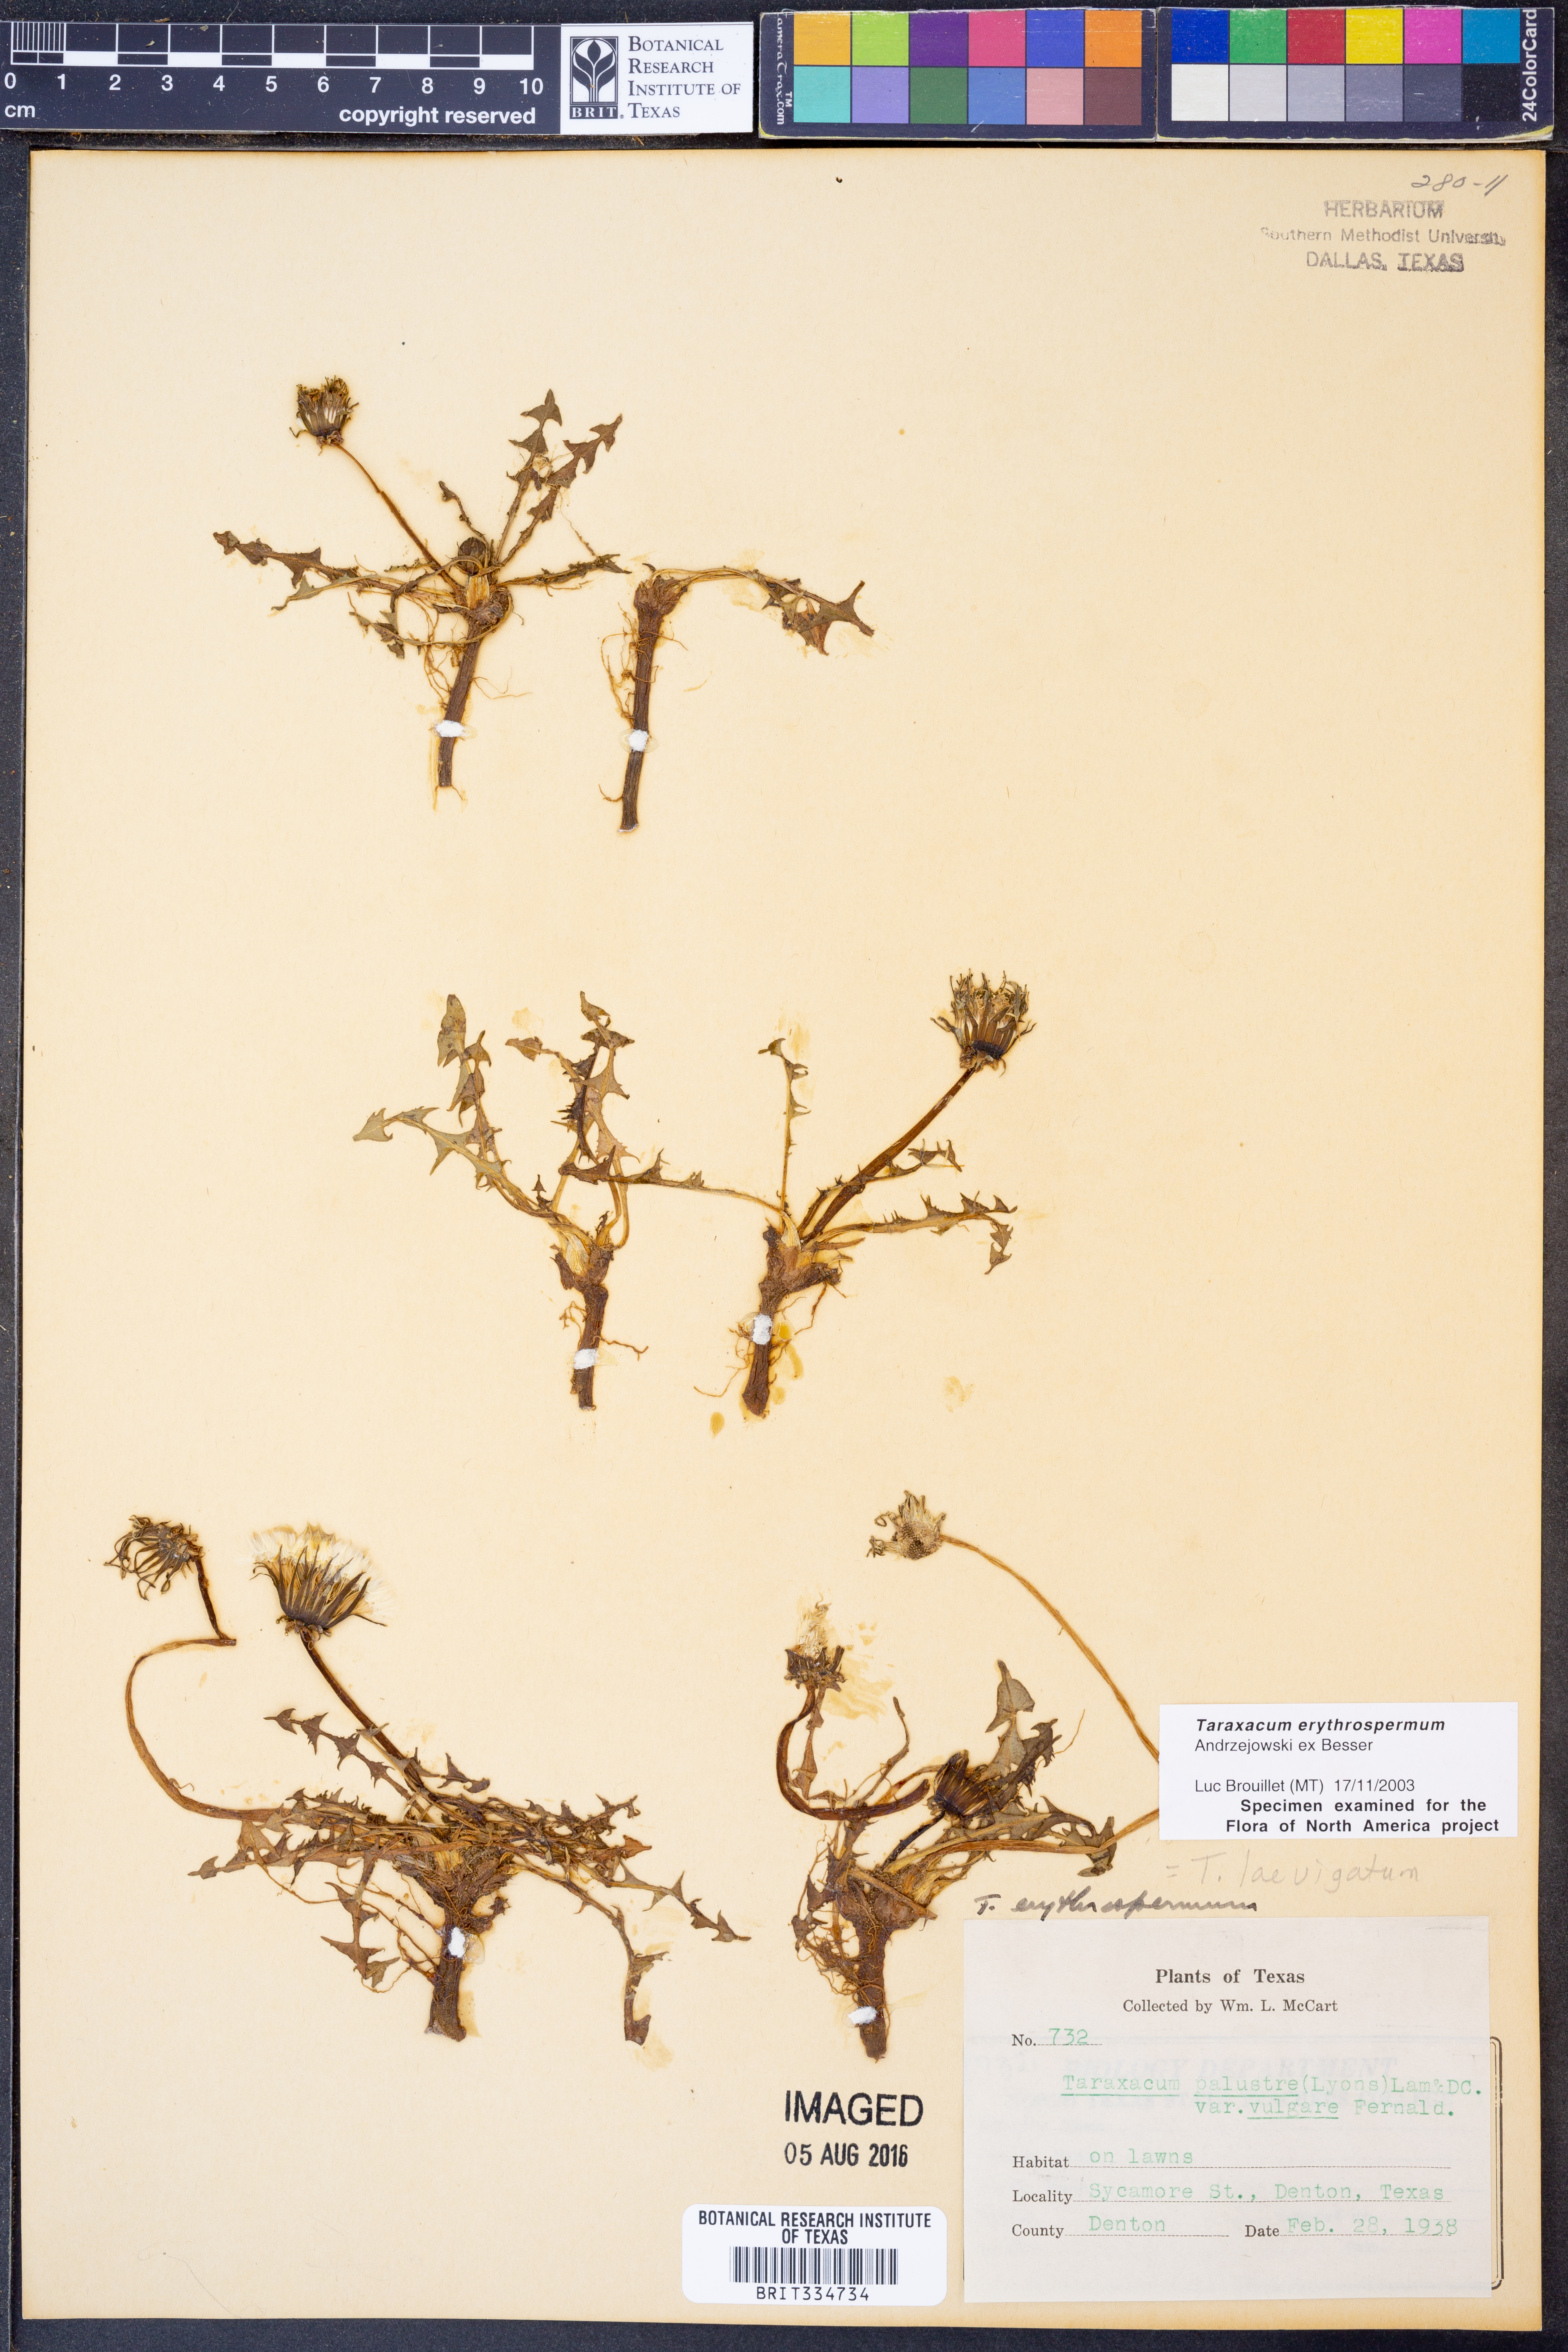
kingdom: Plantae
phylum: Tracheophyta
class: Magnoliopsida
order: Asterales
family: Asteraceae
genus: Taraxacum
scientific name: Taraxacum erythrospermum
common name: Rock dandelion
